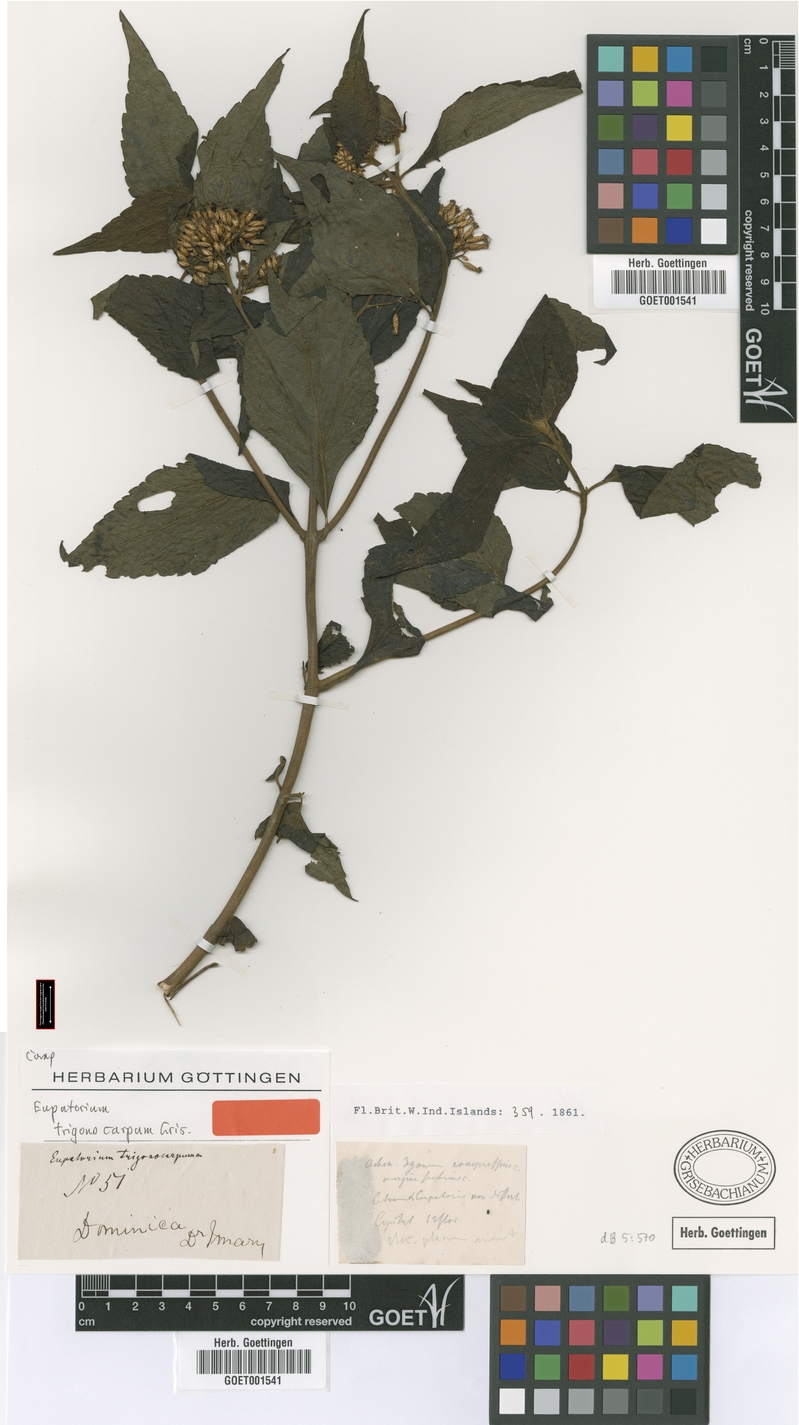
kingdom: Plantae
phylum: Tracheophyta
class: Magnoliopsida
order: Asterales
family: Asteraceae
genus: Chromolaena
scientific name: Chromolaena trigonocarpa
